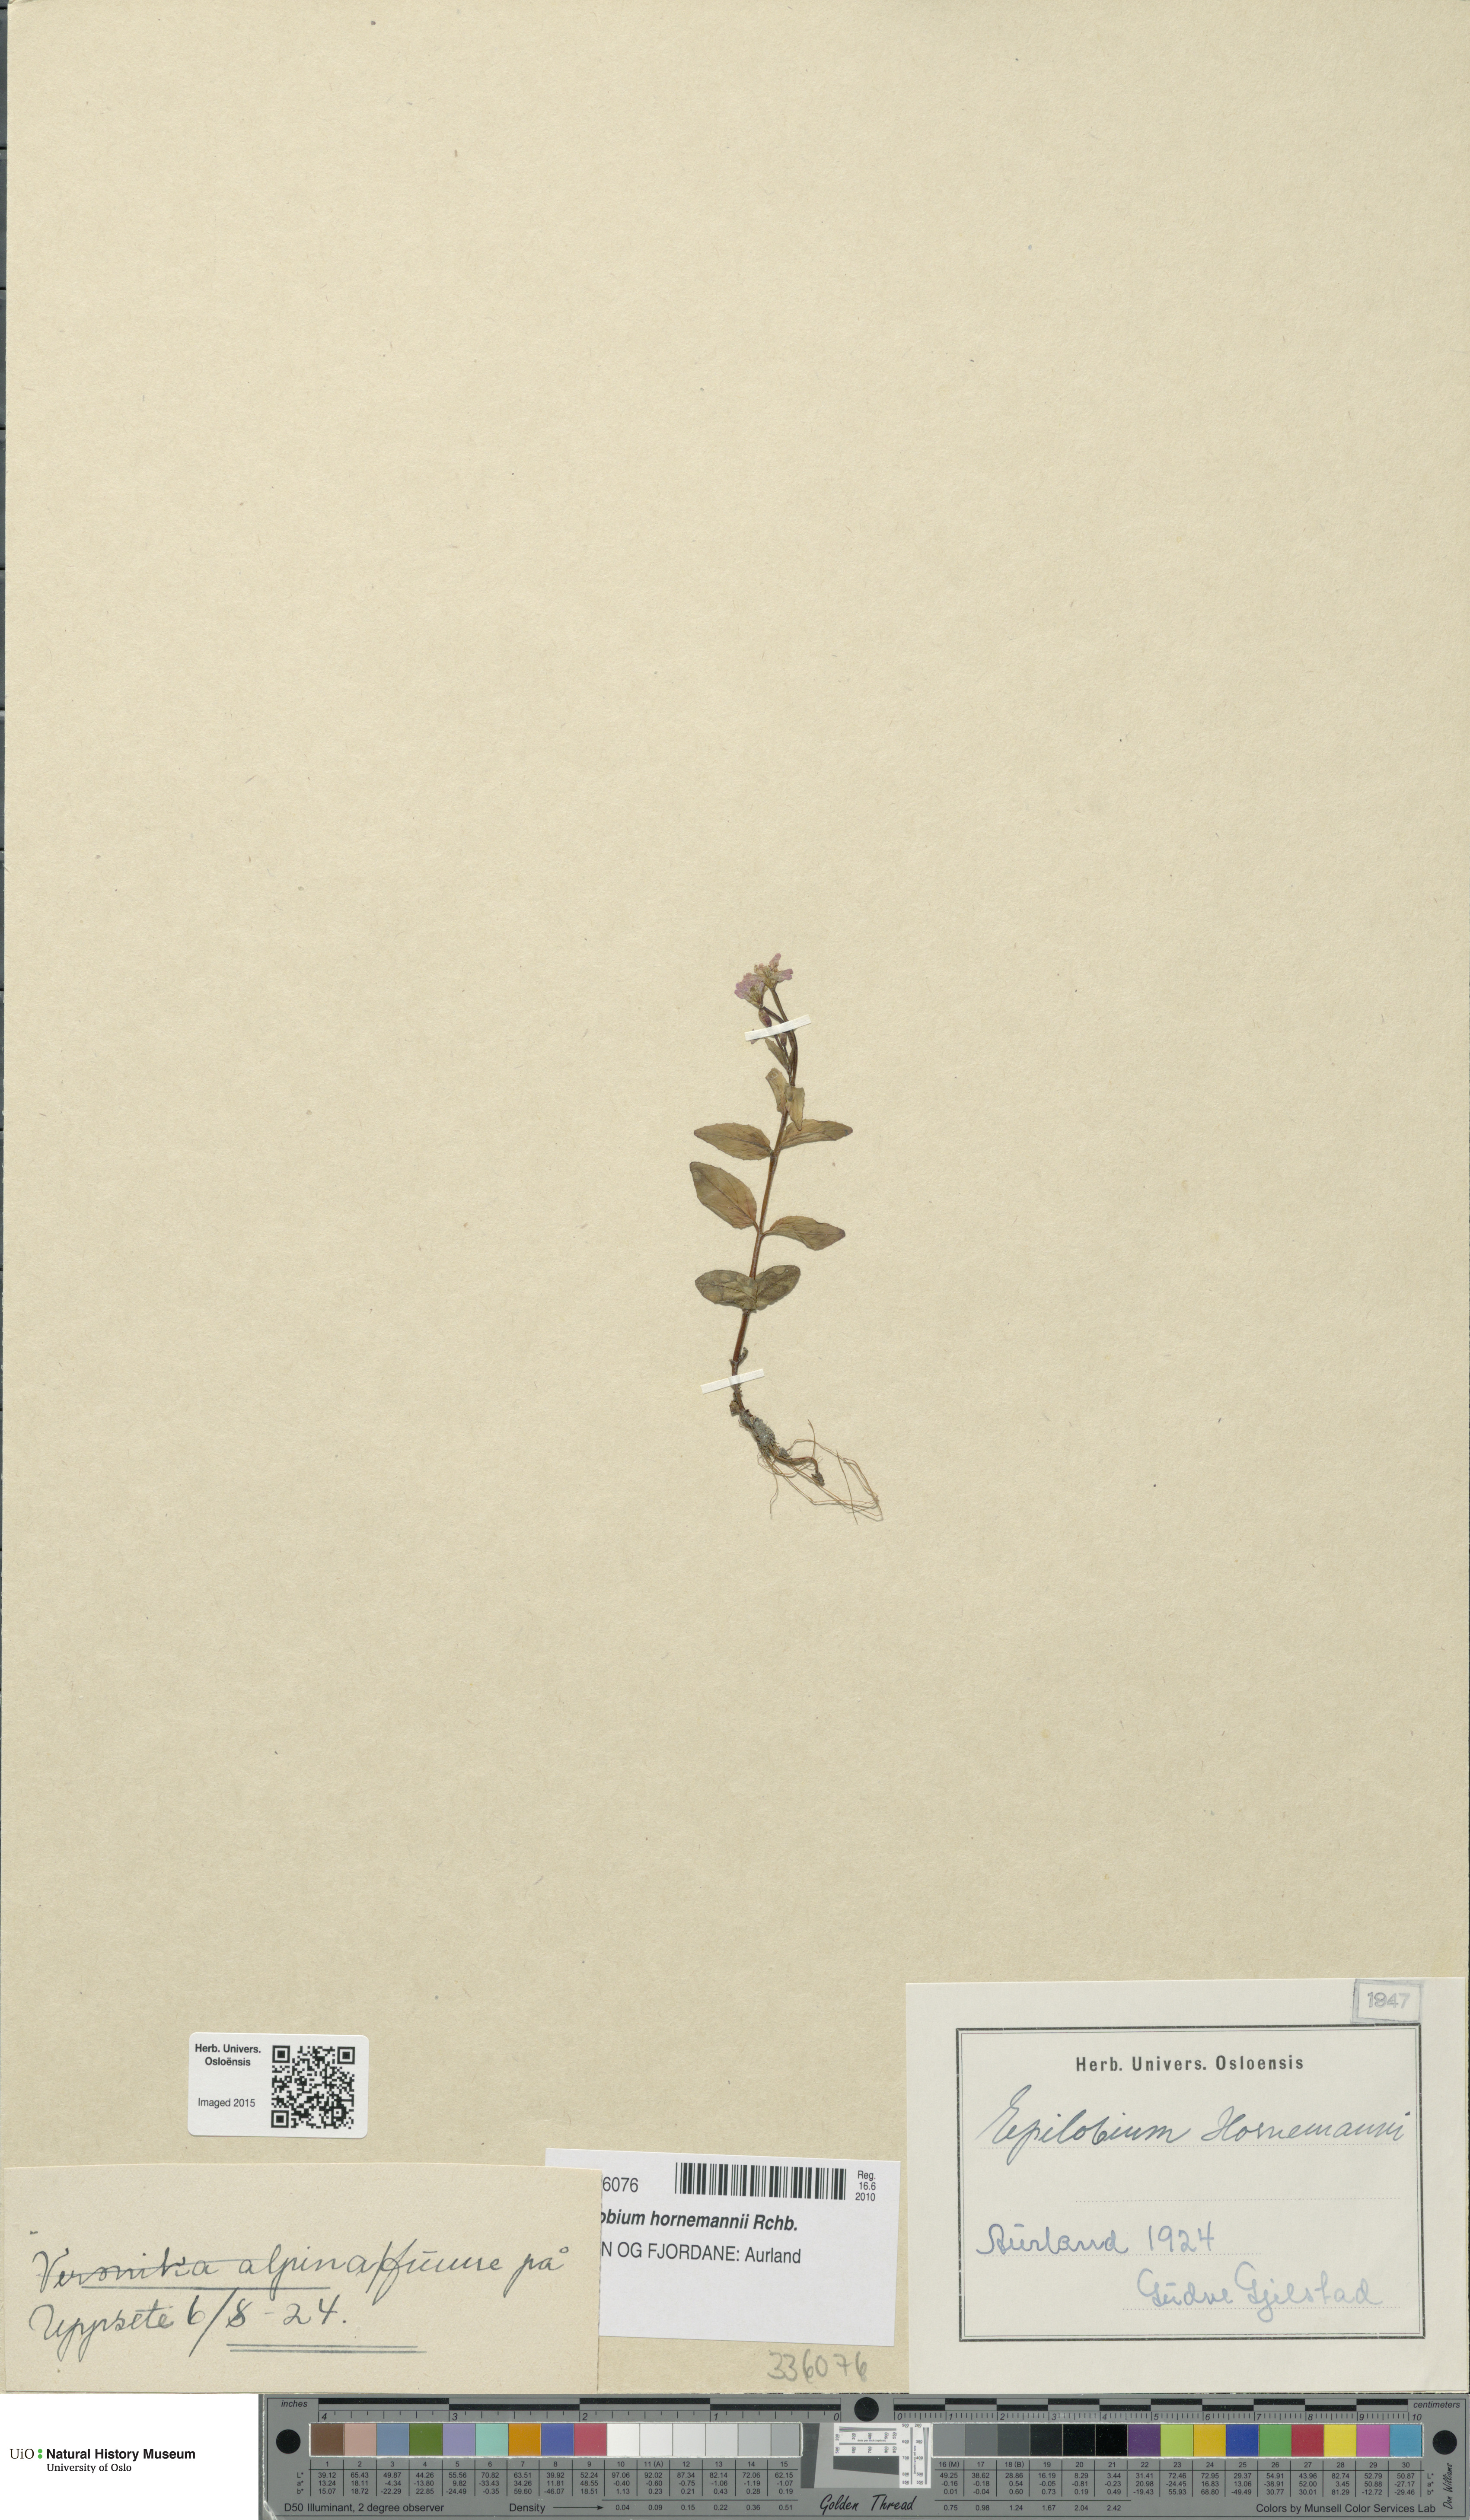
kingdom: Plantae
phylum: Tracheophyta
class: Magnoliopsida
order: Myrtales
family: Onagraceae
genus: Epilobium
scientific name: Epilobium hornemannii
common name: Hornemann's willowherb
